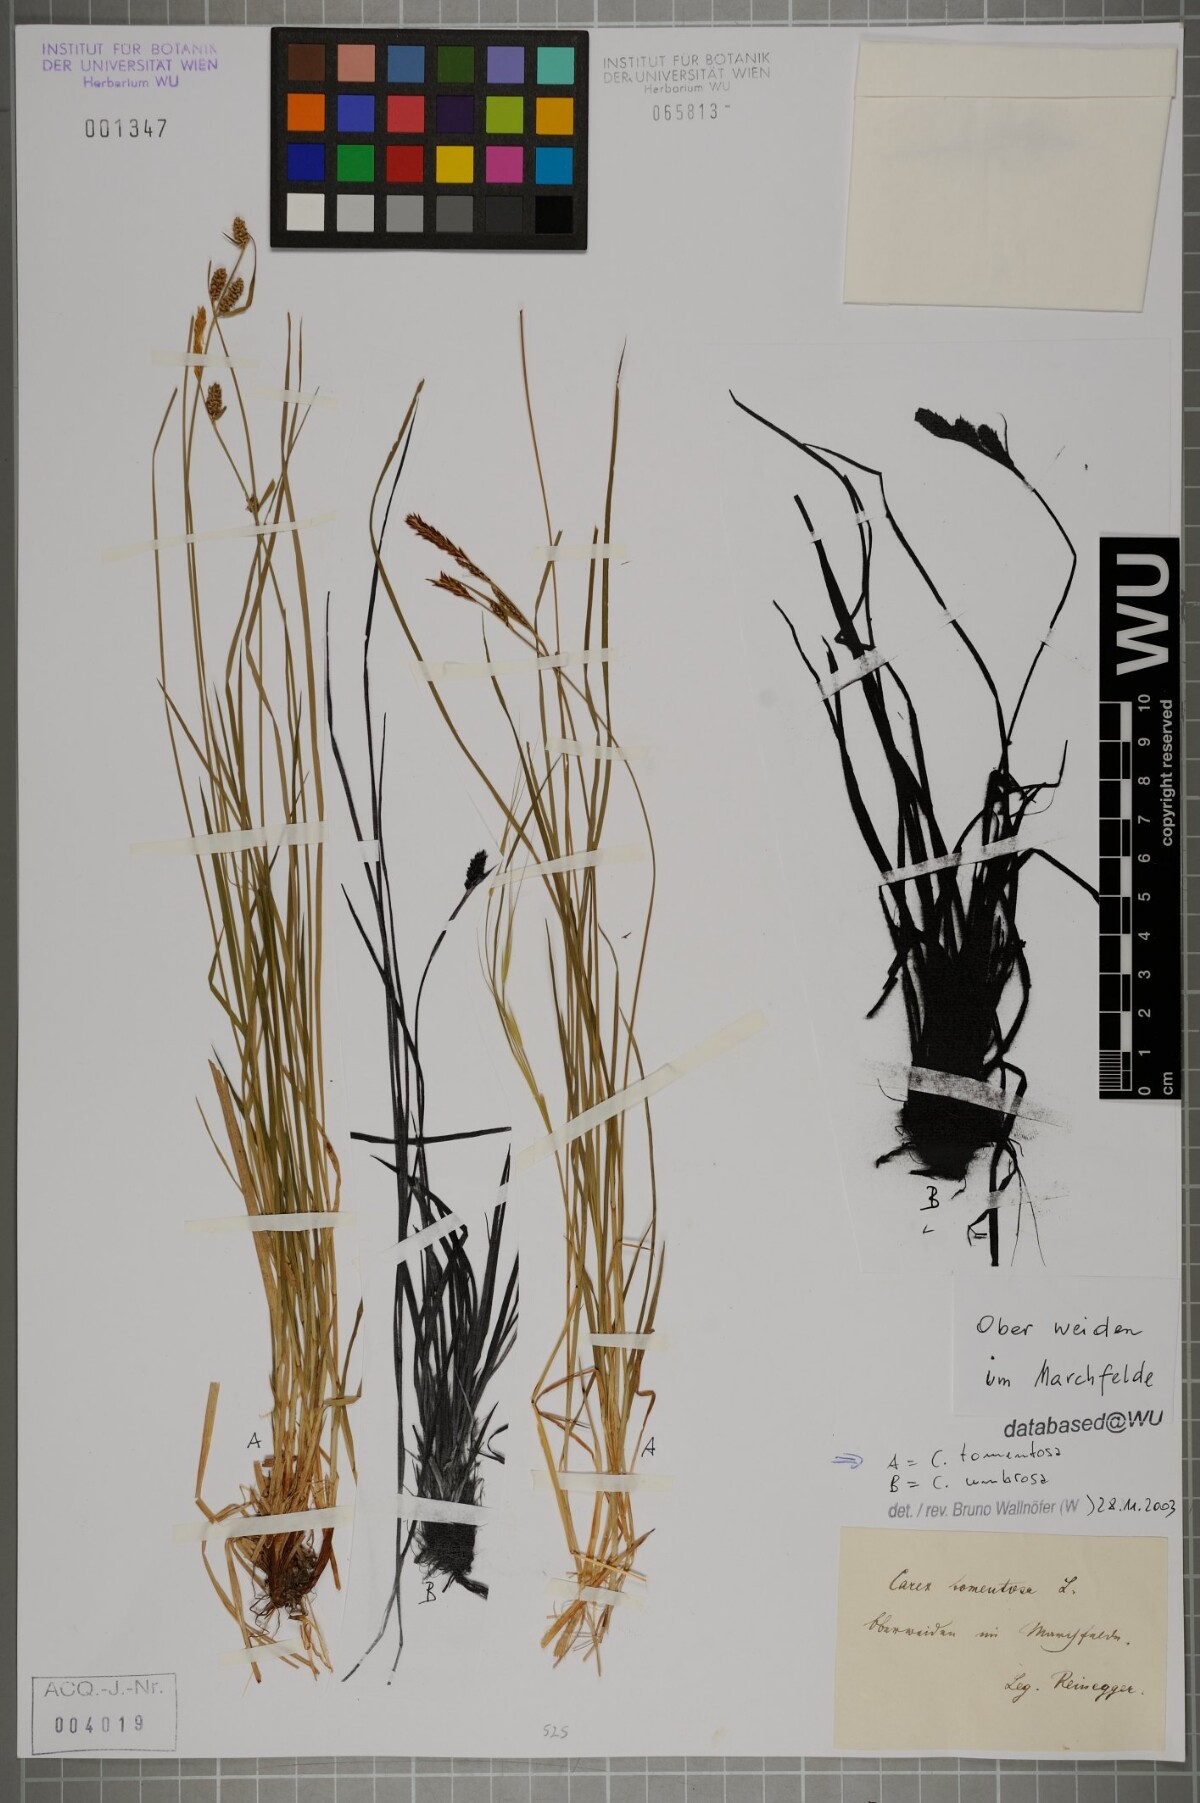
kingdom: Plantae
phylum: Tracheophyta
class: Liliopsida
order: Poales
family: Cyperaceae
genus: Carex
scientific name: Carex tomentosa
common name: Downy-fruited sedge
